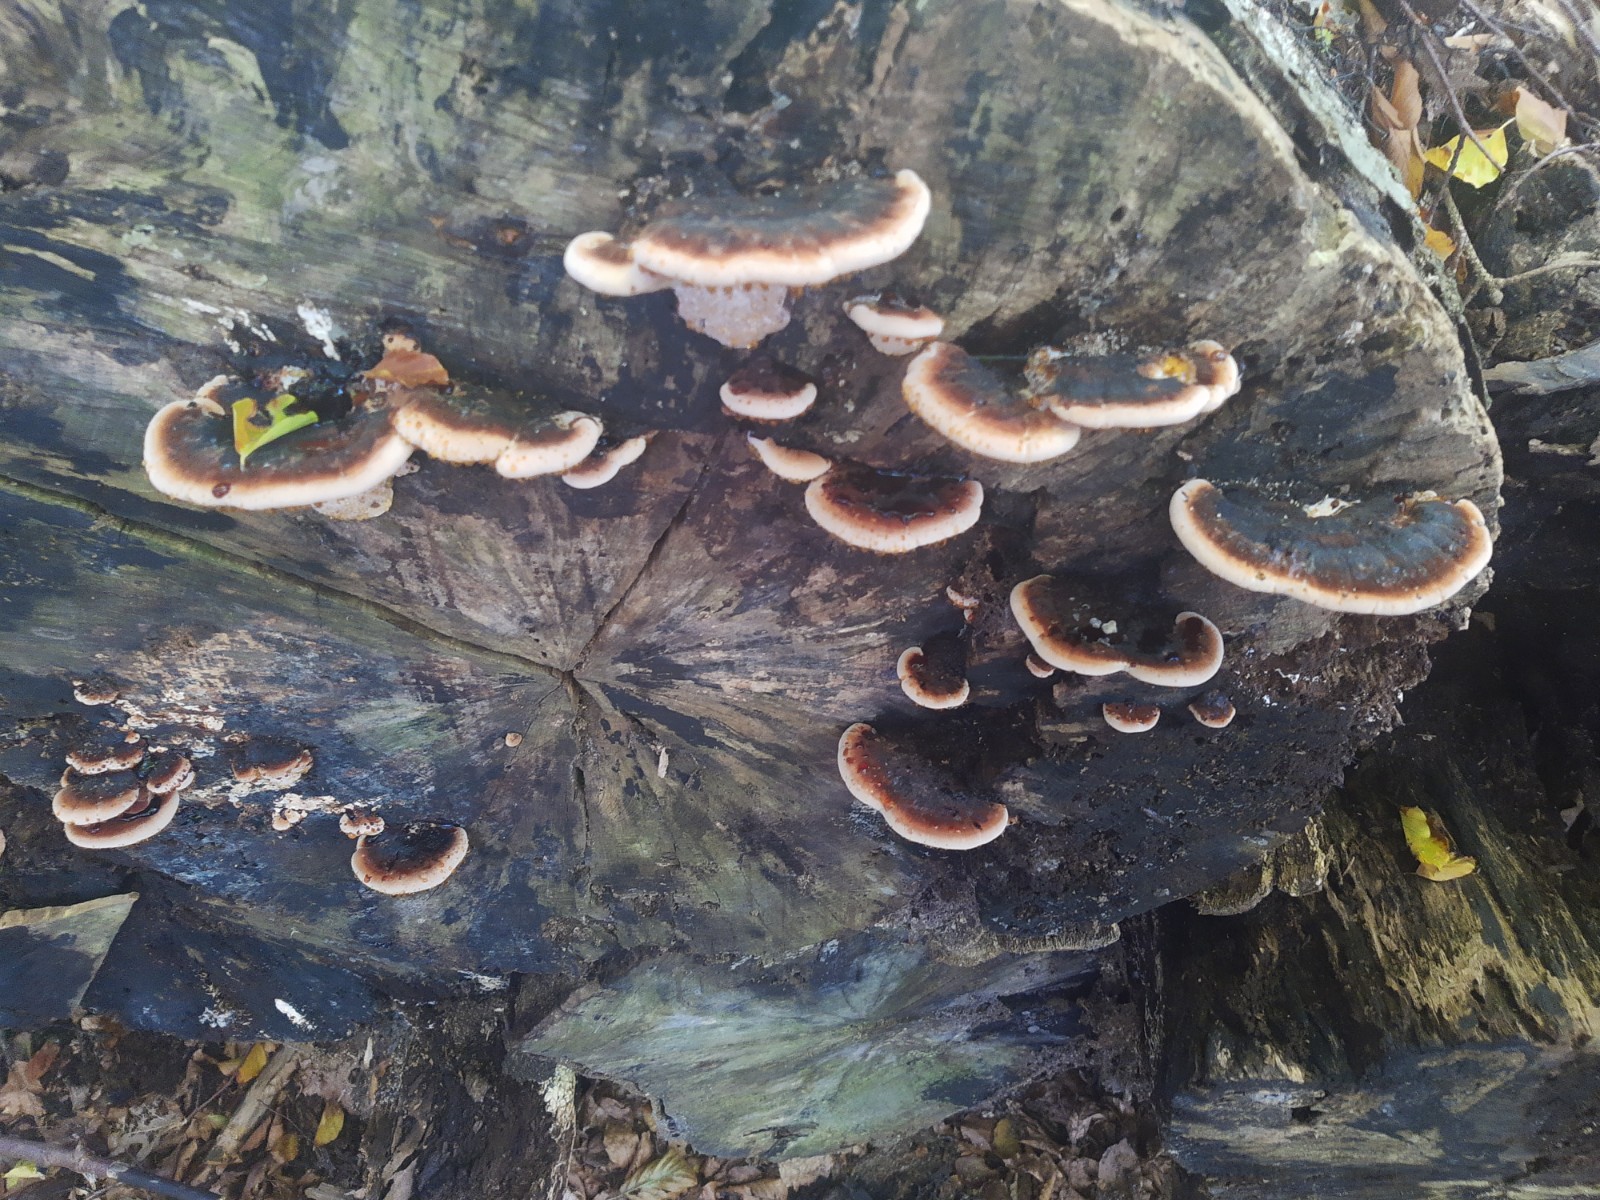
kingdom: Fungi
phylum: Basidiomycota
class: Agaricomycetes
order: Polyporales
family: Ischnodermataceae
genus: Ischnoderma
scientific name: Ischnoderma resinosum
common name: løv-tjæreporesvamp
